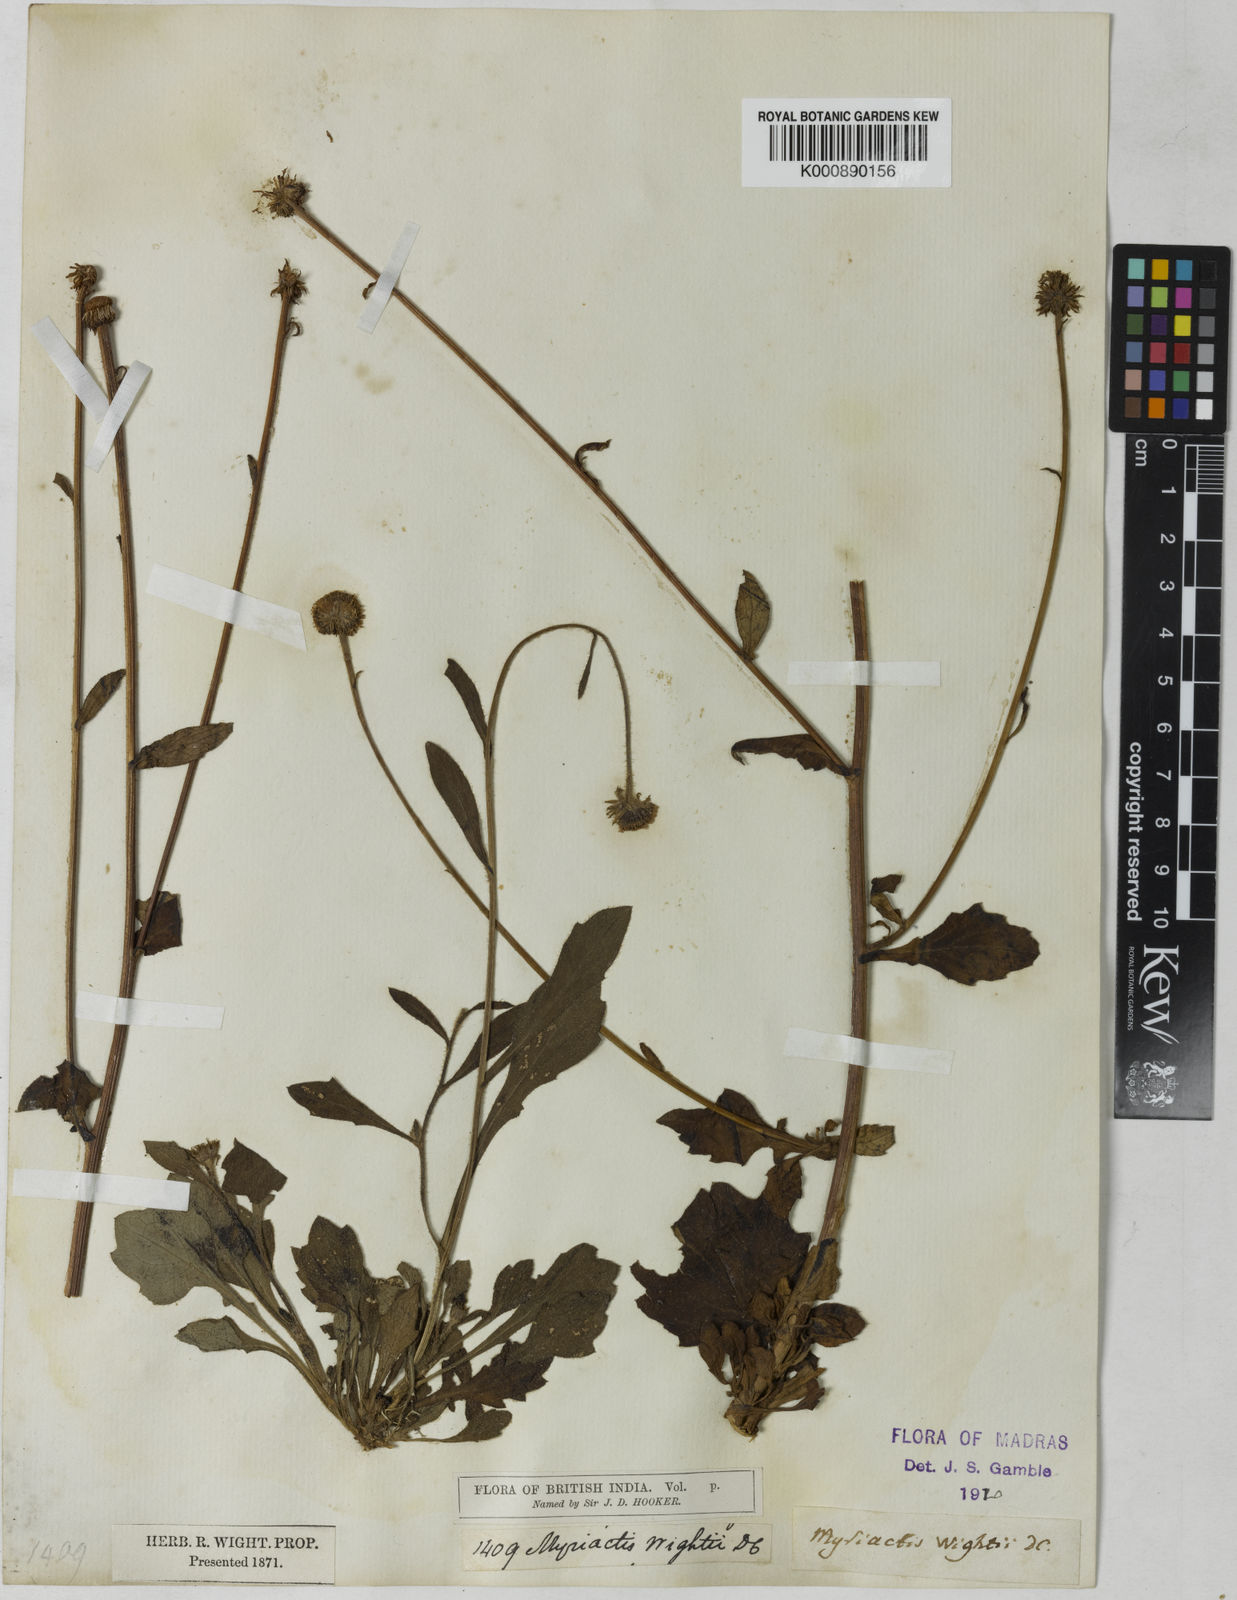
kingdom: Plantae
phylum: Tracheophyta
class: Magnoliopsida
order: Asterales
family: Asteraceae
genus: Myriactis
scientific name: Myriactis wightii
